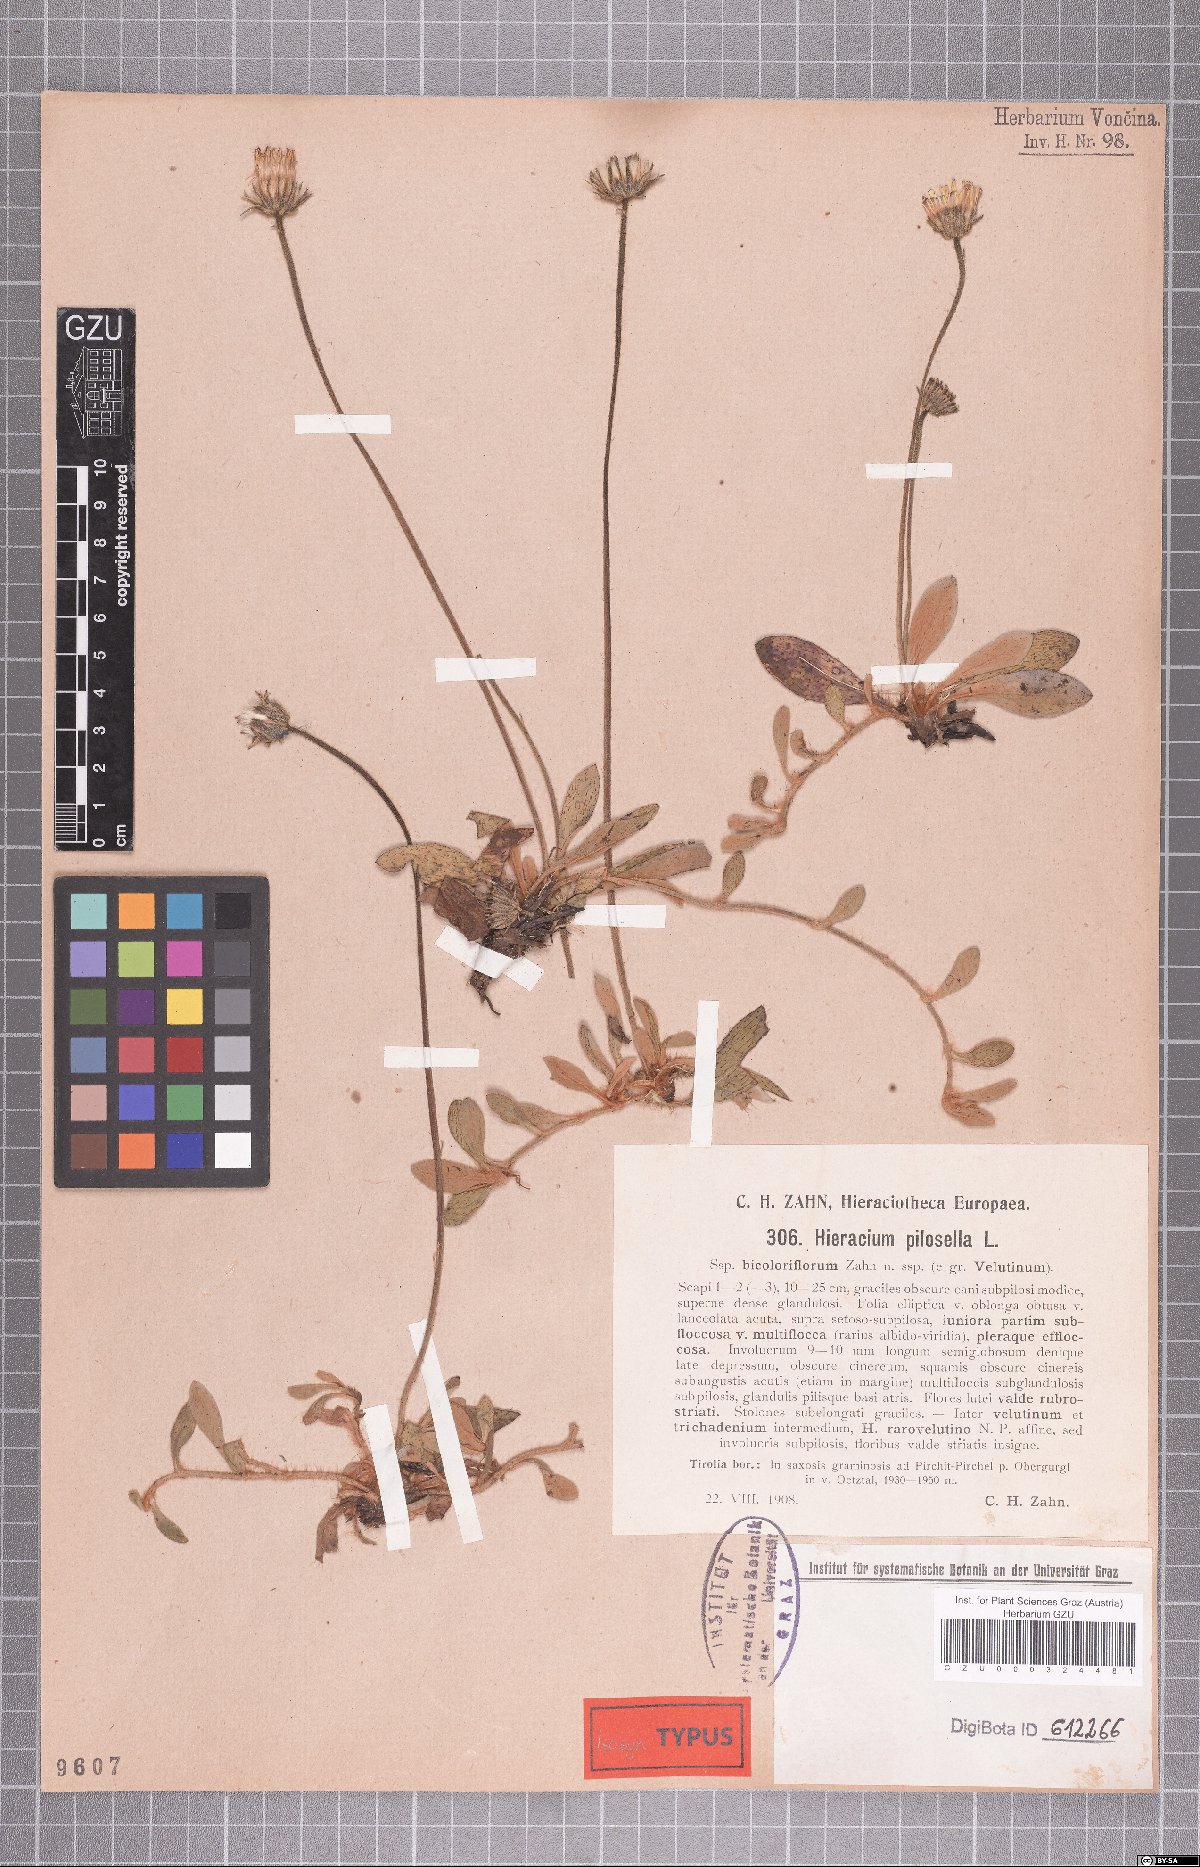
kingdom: Plantae
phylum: Tracheophyta
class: Magnoliopsida
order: Asterales
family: Asteraceae
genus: Pilosella
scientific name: Pilosella officinarum
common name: Mouse-ear hawkweed
